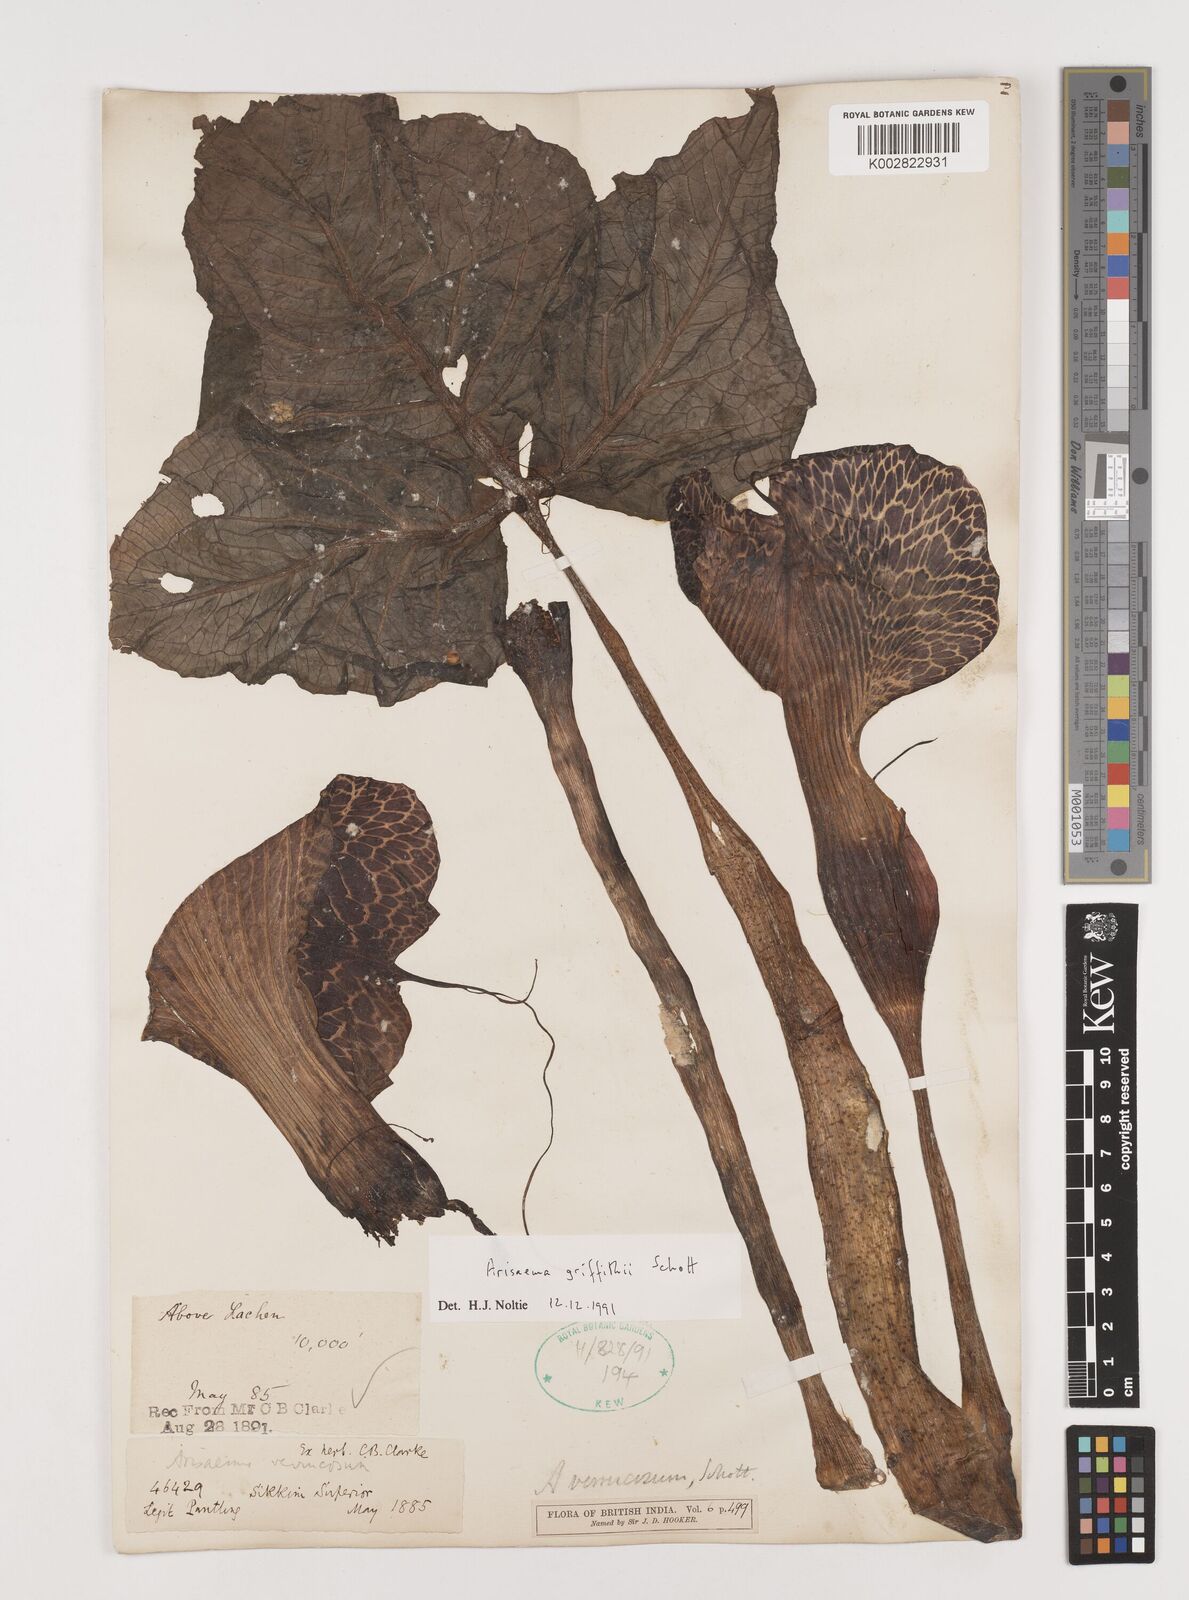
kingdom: Plantae
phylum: Tracheophyta
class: Liliopsida
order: Alismatales
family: Araceae
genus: Arisaema
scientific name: Arisaema griffithii
